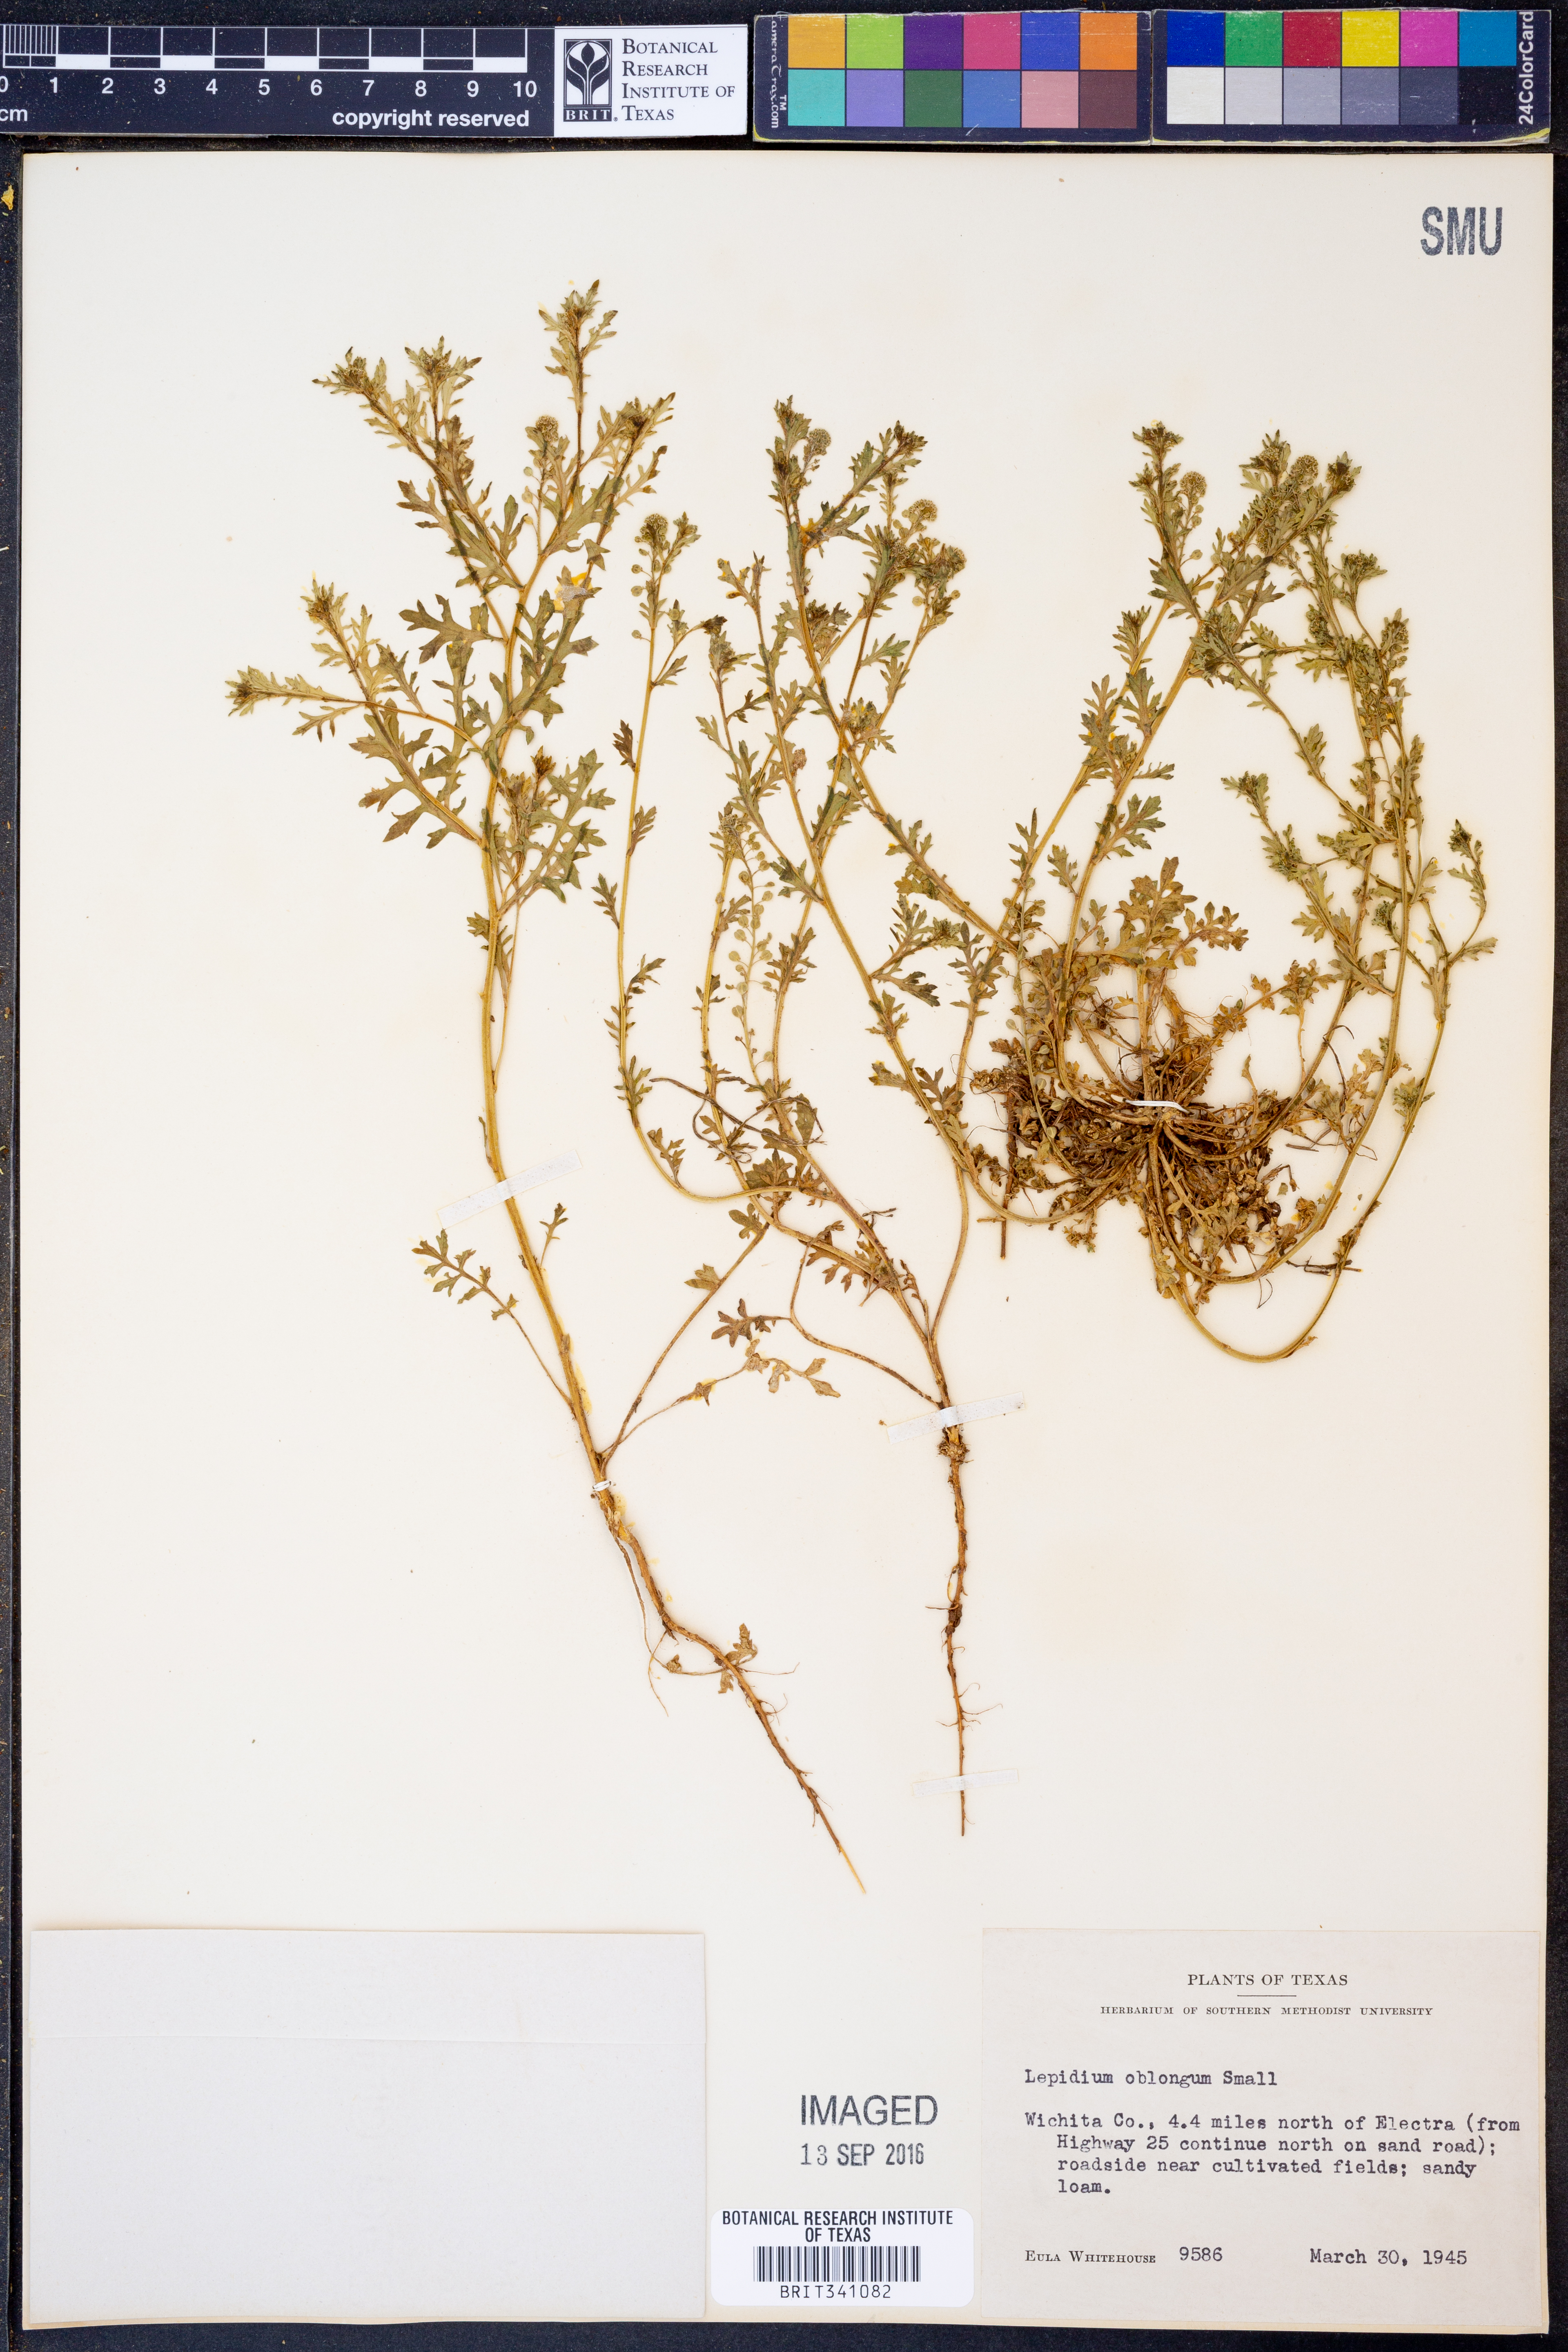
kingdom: Plantae
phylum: Tracheophyta
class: Magnoliopsida
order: Brassicales
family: Brassicaceae
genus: Lepidium
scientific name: Lepidium oblongum
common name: Veiny pepperweed
